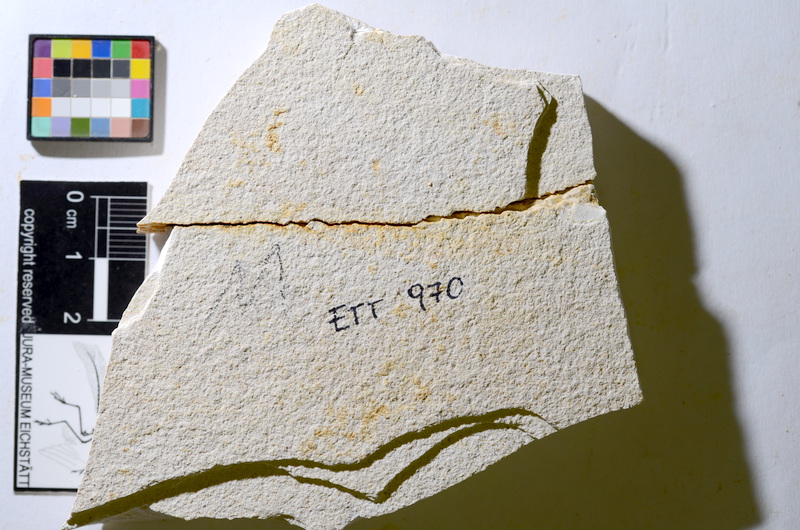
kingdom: Animalia
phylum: Chordata
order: Salmoniformes
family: Orthogonikleithridae
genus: Orthogonikleithrus
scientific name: Orthogonikleithrus hoelli
